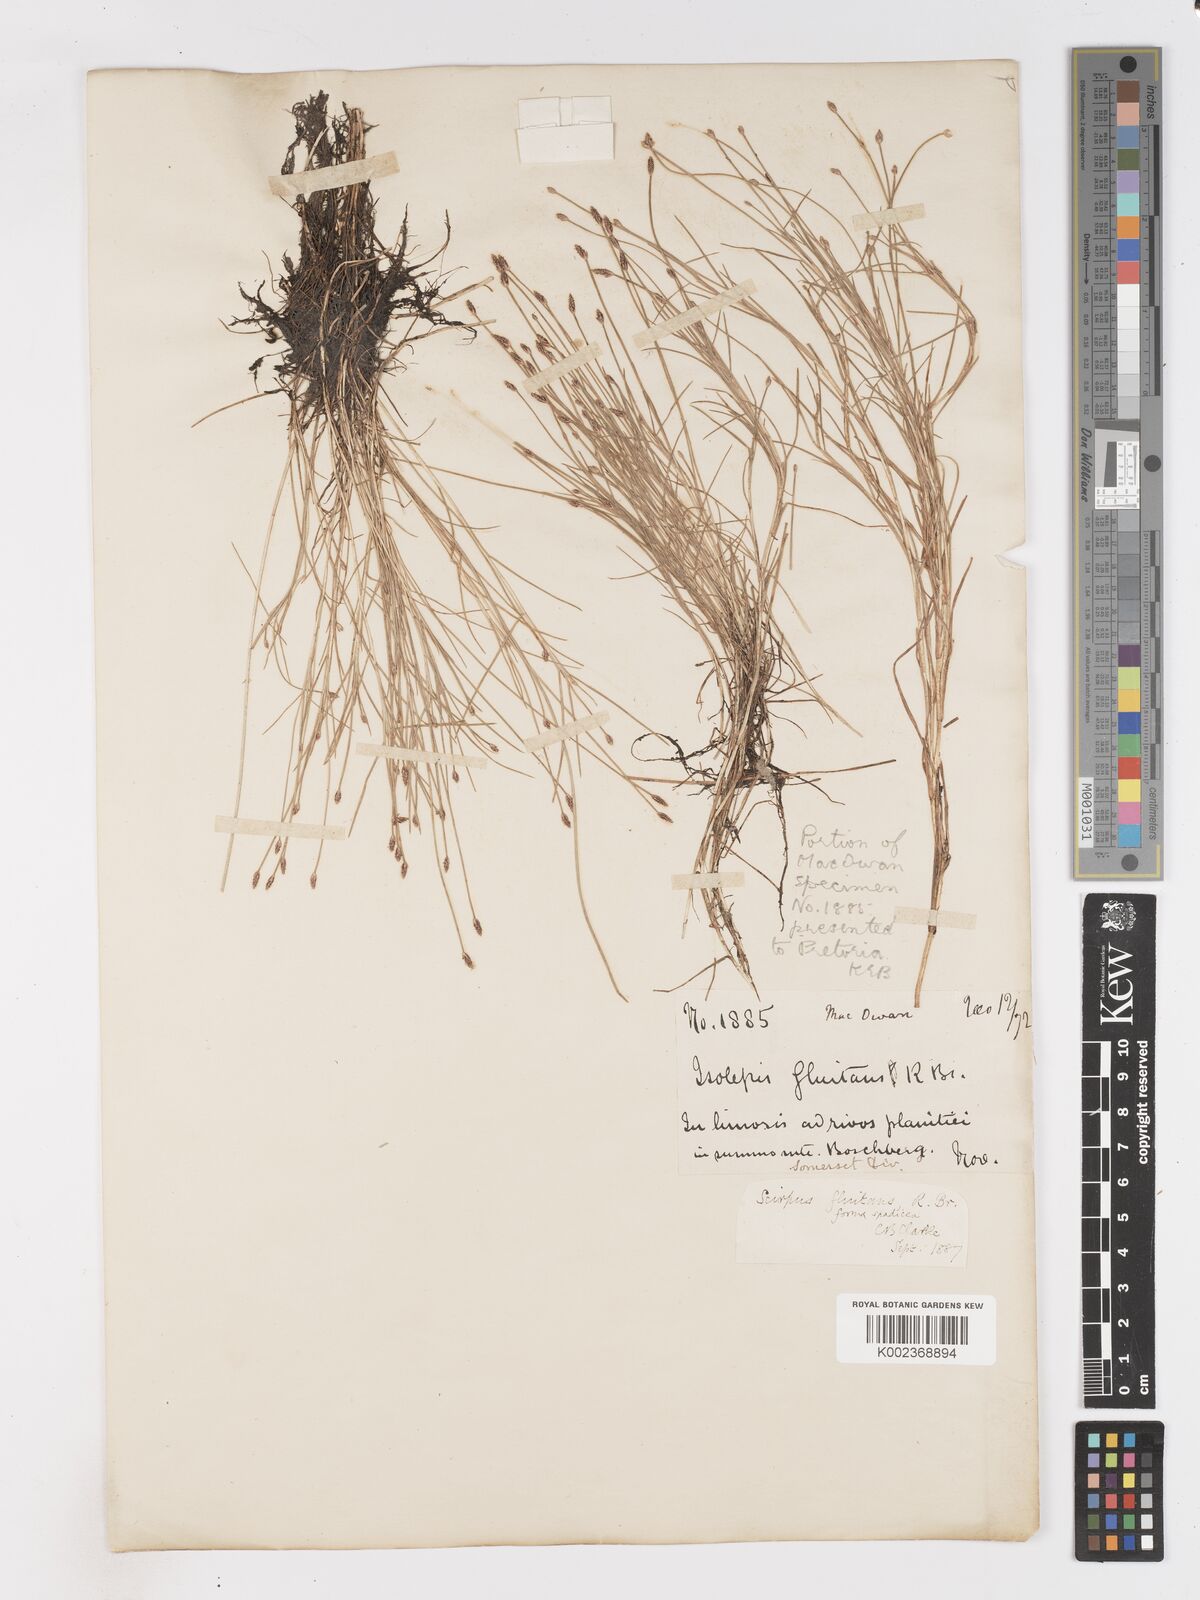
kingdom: Plantae
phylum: Tracheophyta
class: Liliopsida
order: Poales
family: Cyperaceae
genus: Isolepis
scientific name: Isolepis fluitans
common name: Floating club-rush
